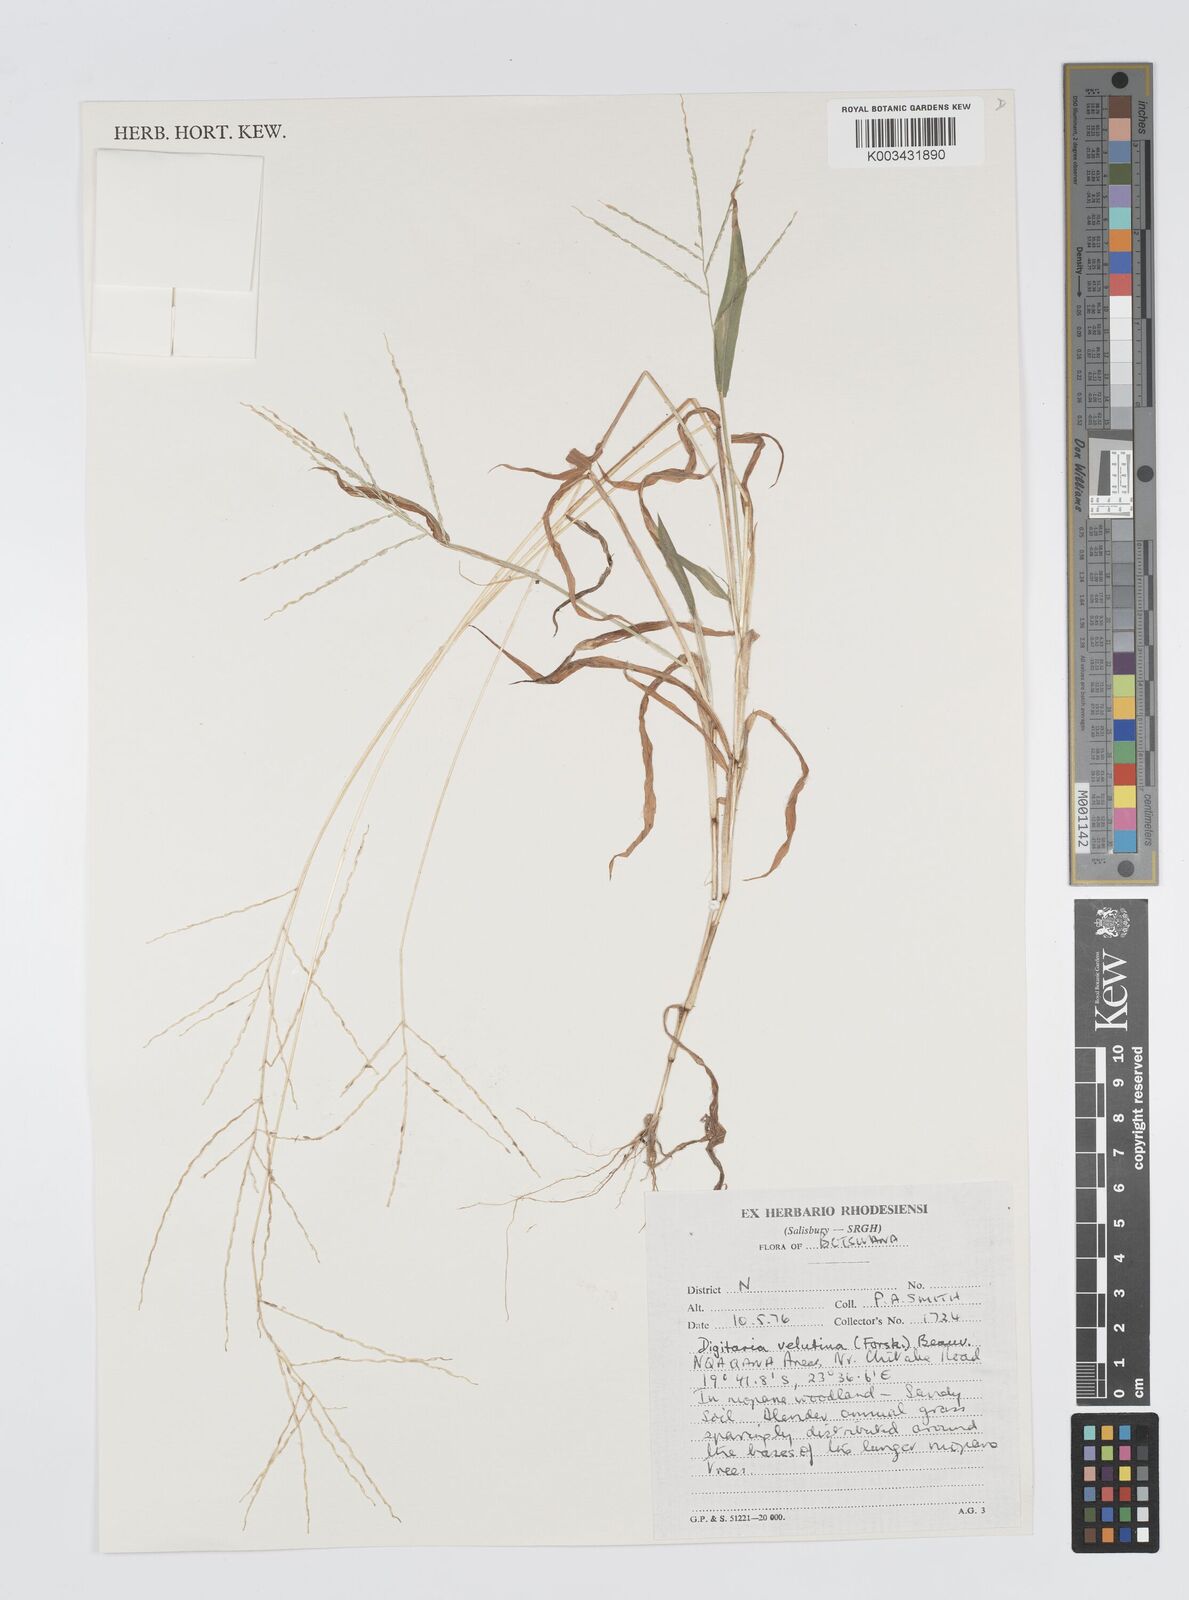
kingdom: Plantae
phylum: Tracheophyta
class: Liliopsida
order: Poales
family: Poaceae
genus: Digitaria
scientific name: Digitaria velutina
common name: Long-plume finger grass
